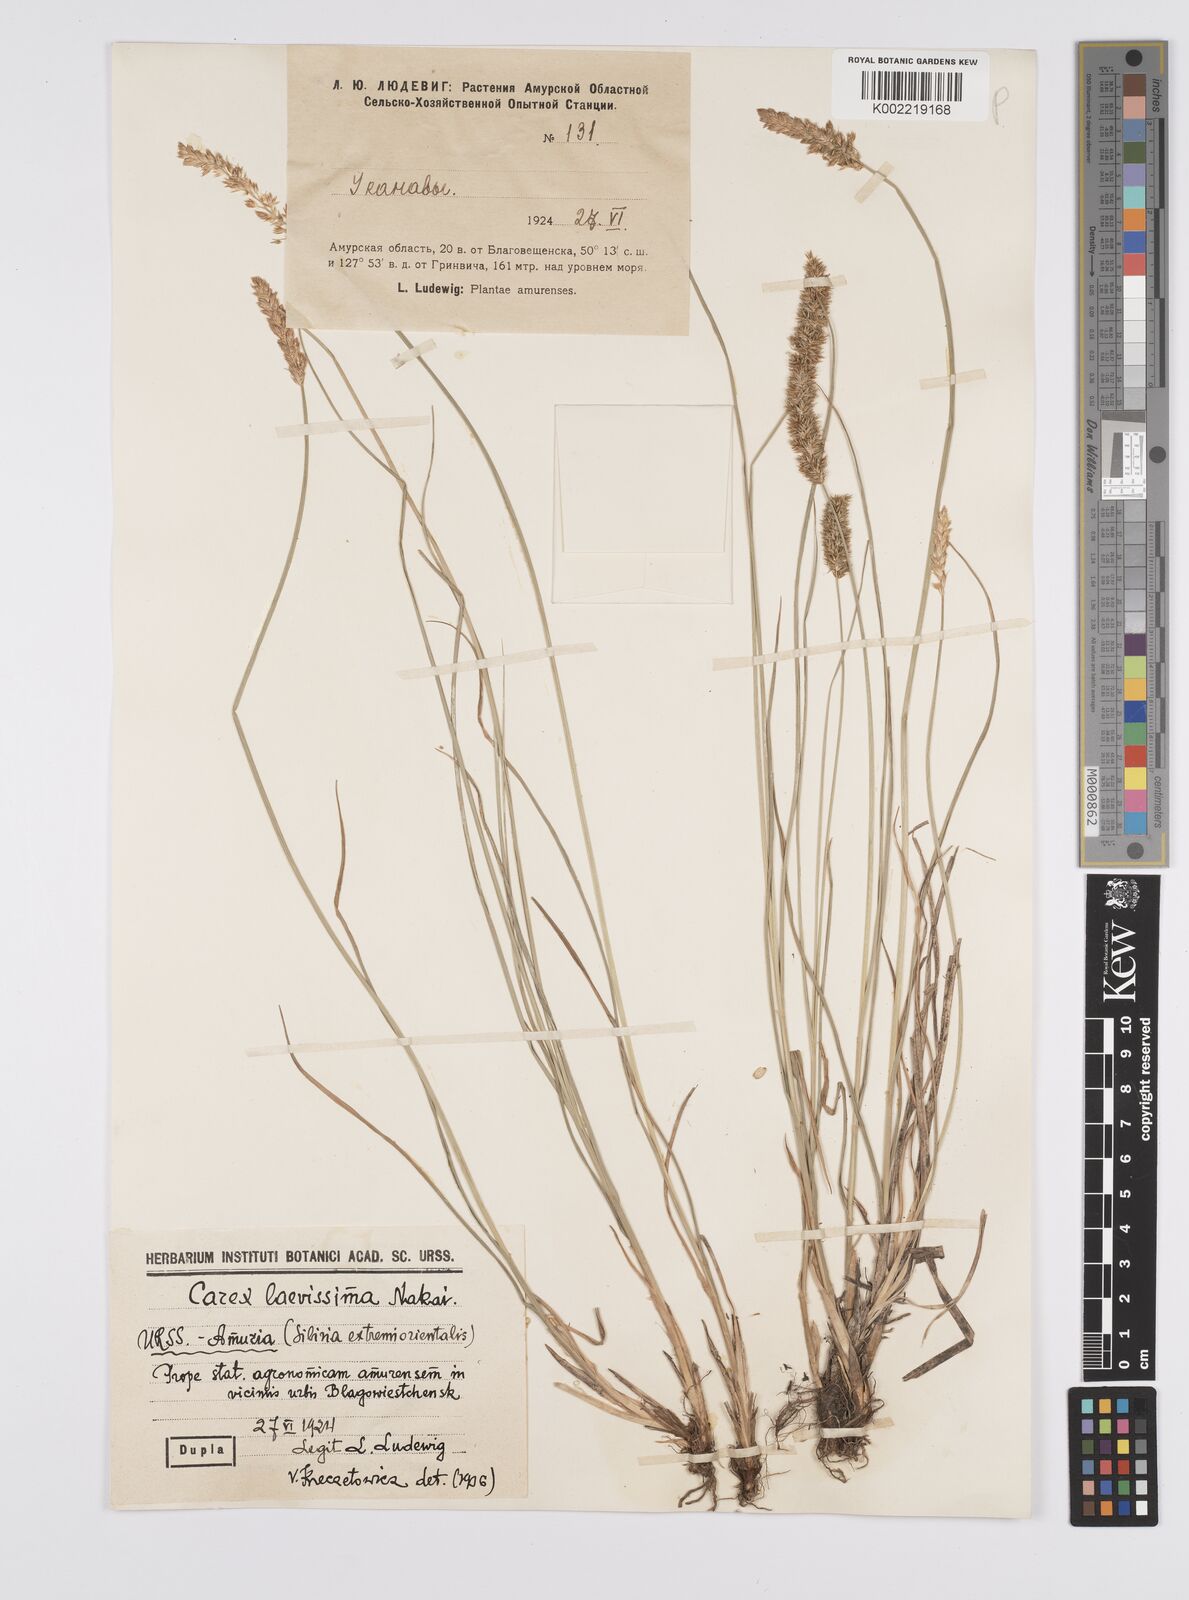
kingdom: Plantae
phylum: Tracheophyta
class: Liliopsida
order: Poales
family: Cyperaceae
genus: Carex
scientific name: Carex
